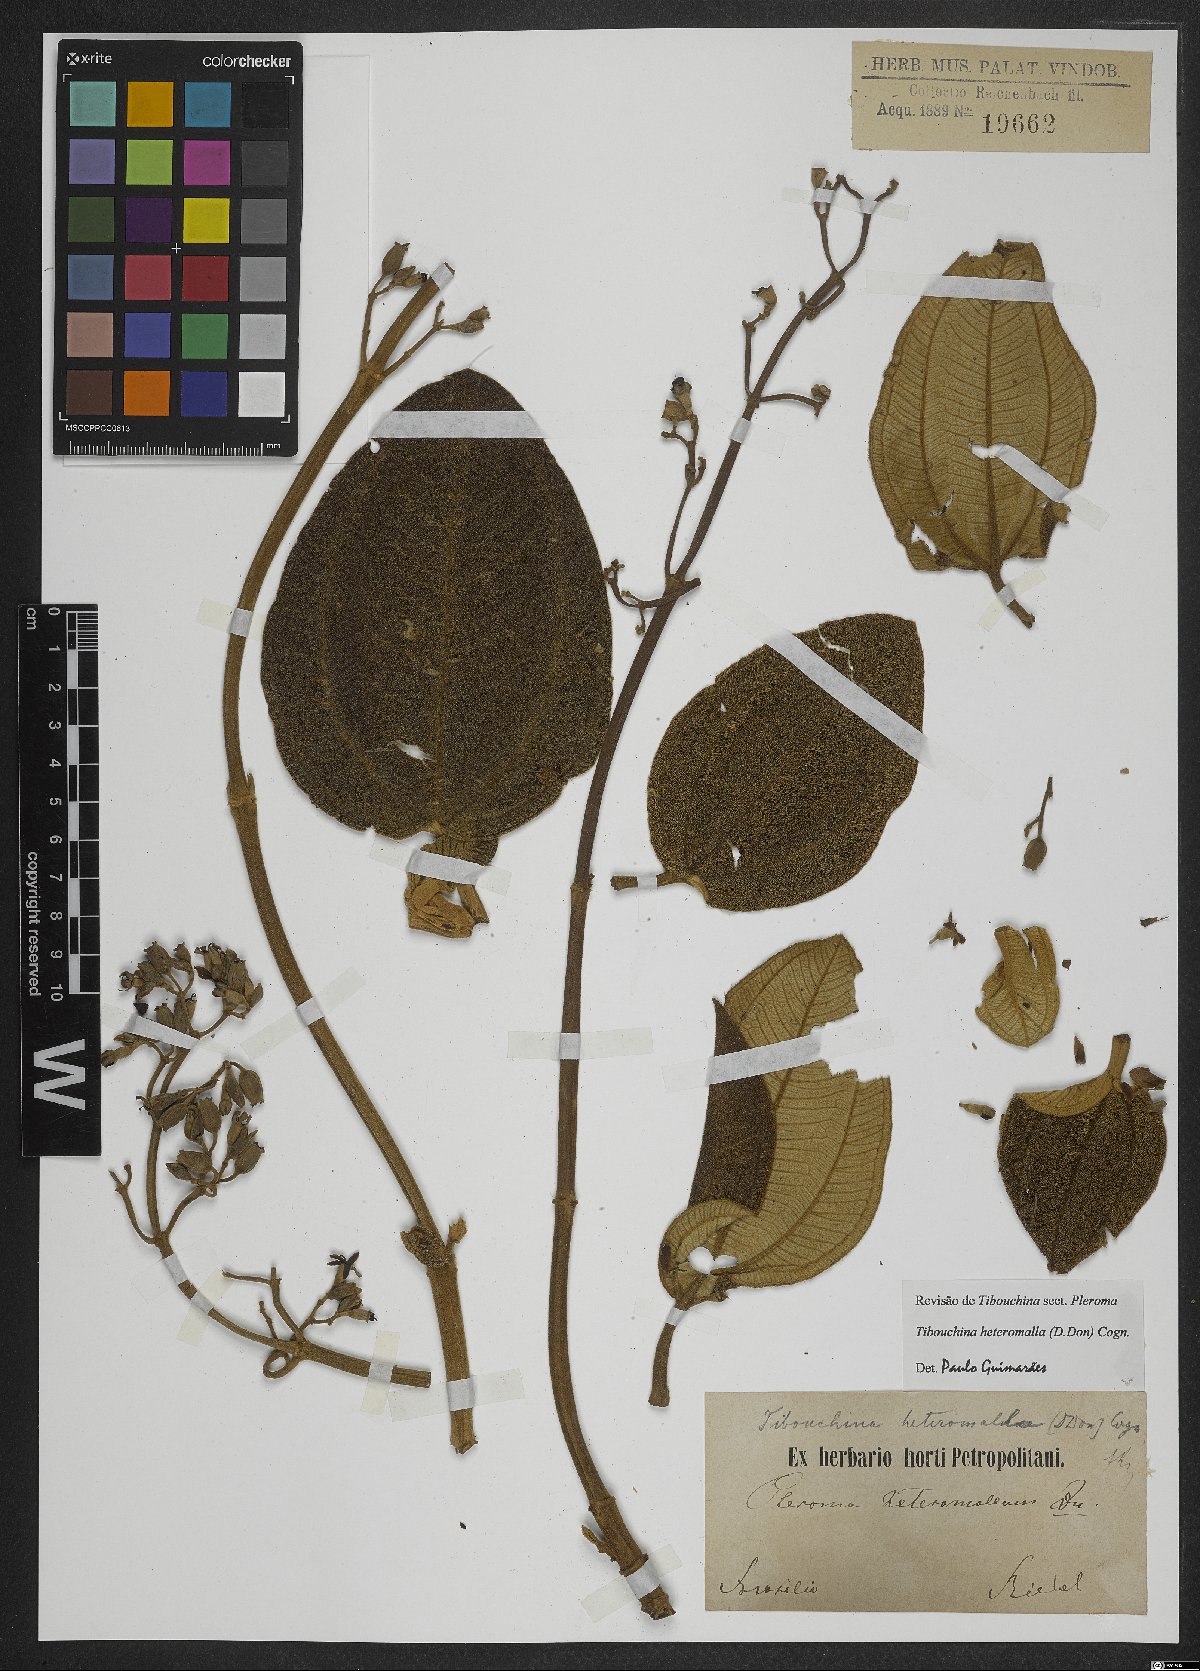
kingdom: Plantae
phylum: Tracheophyta
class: Magnoliopsida
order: Myrtales
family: Melastomataceae
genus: Pleroma
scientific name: Pleroma heteromallum
